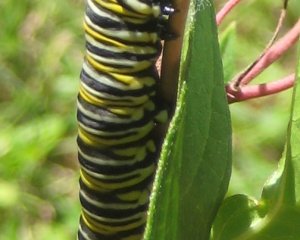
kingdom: Animalia
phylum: Arthropoda
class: Insecta
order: Lepidoptera
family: Nymphalidae
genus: Danaus
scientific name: Danaus plexippus
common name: Monarch
